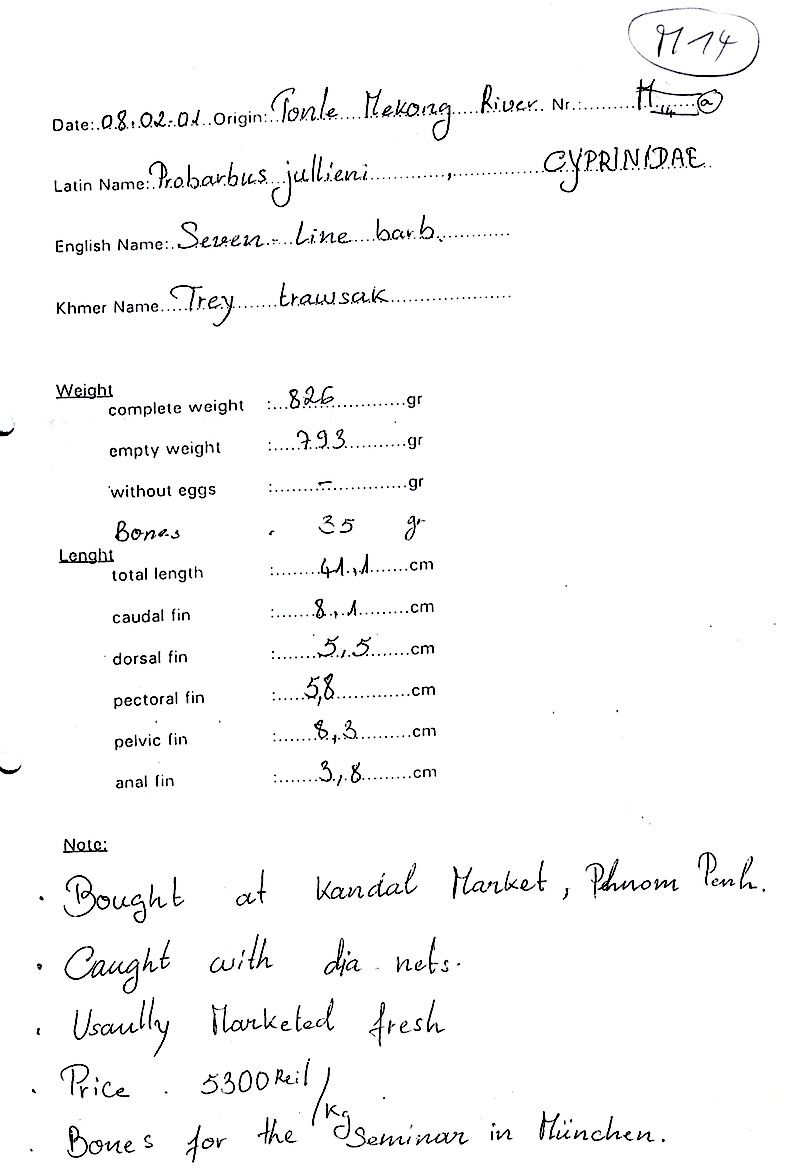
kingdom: Animalia
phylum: Chordata
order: Cypriniformes
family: Cyprinidae
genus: Probarbus
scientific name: Probarbus jullieni
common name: Jullien's golden carp
